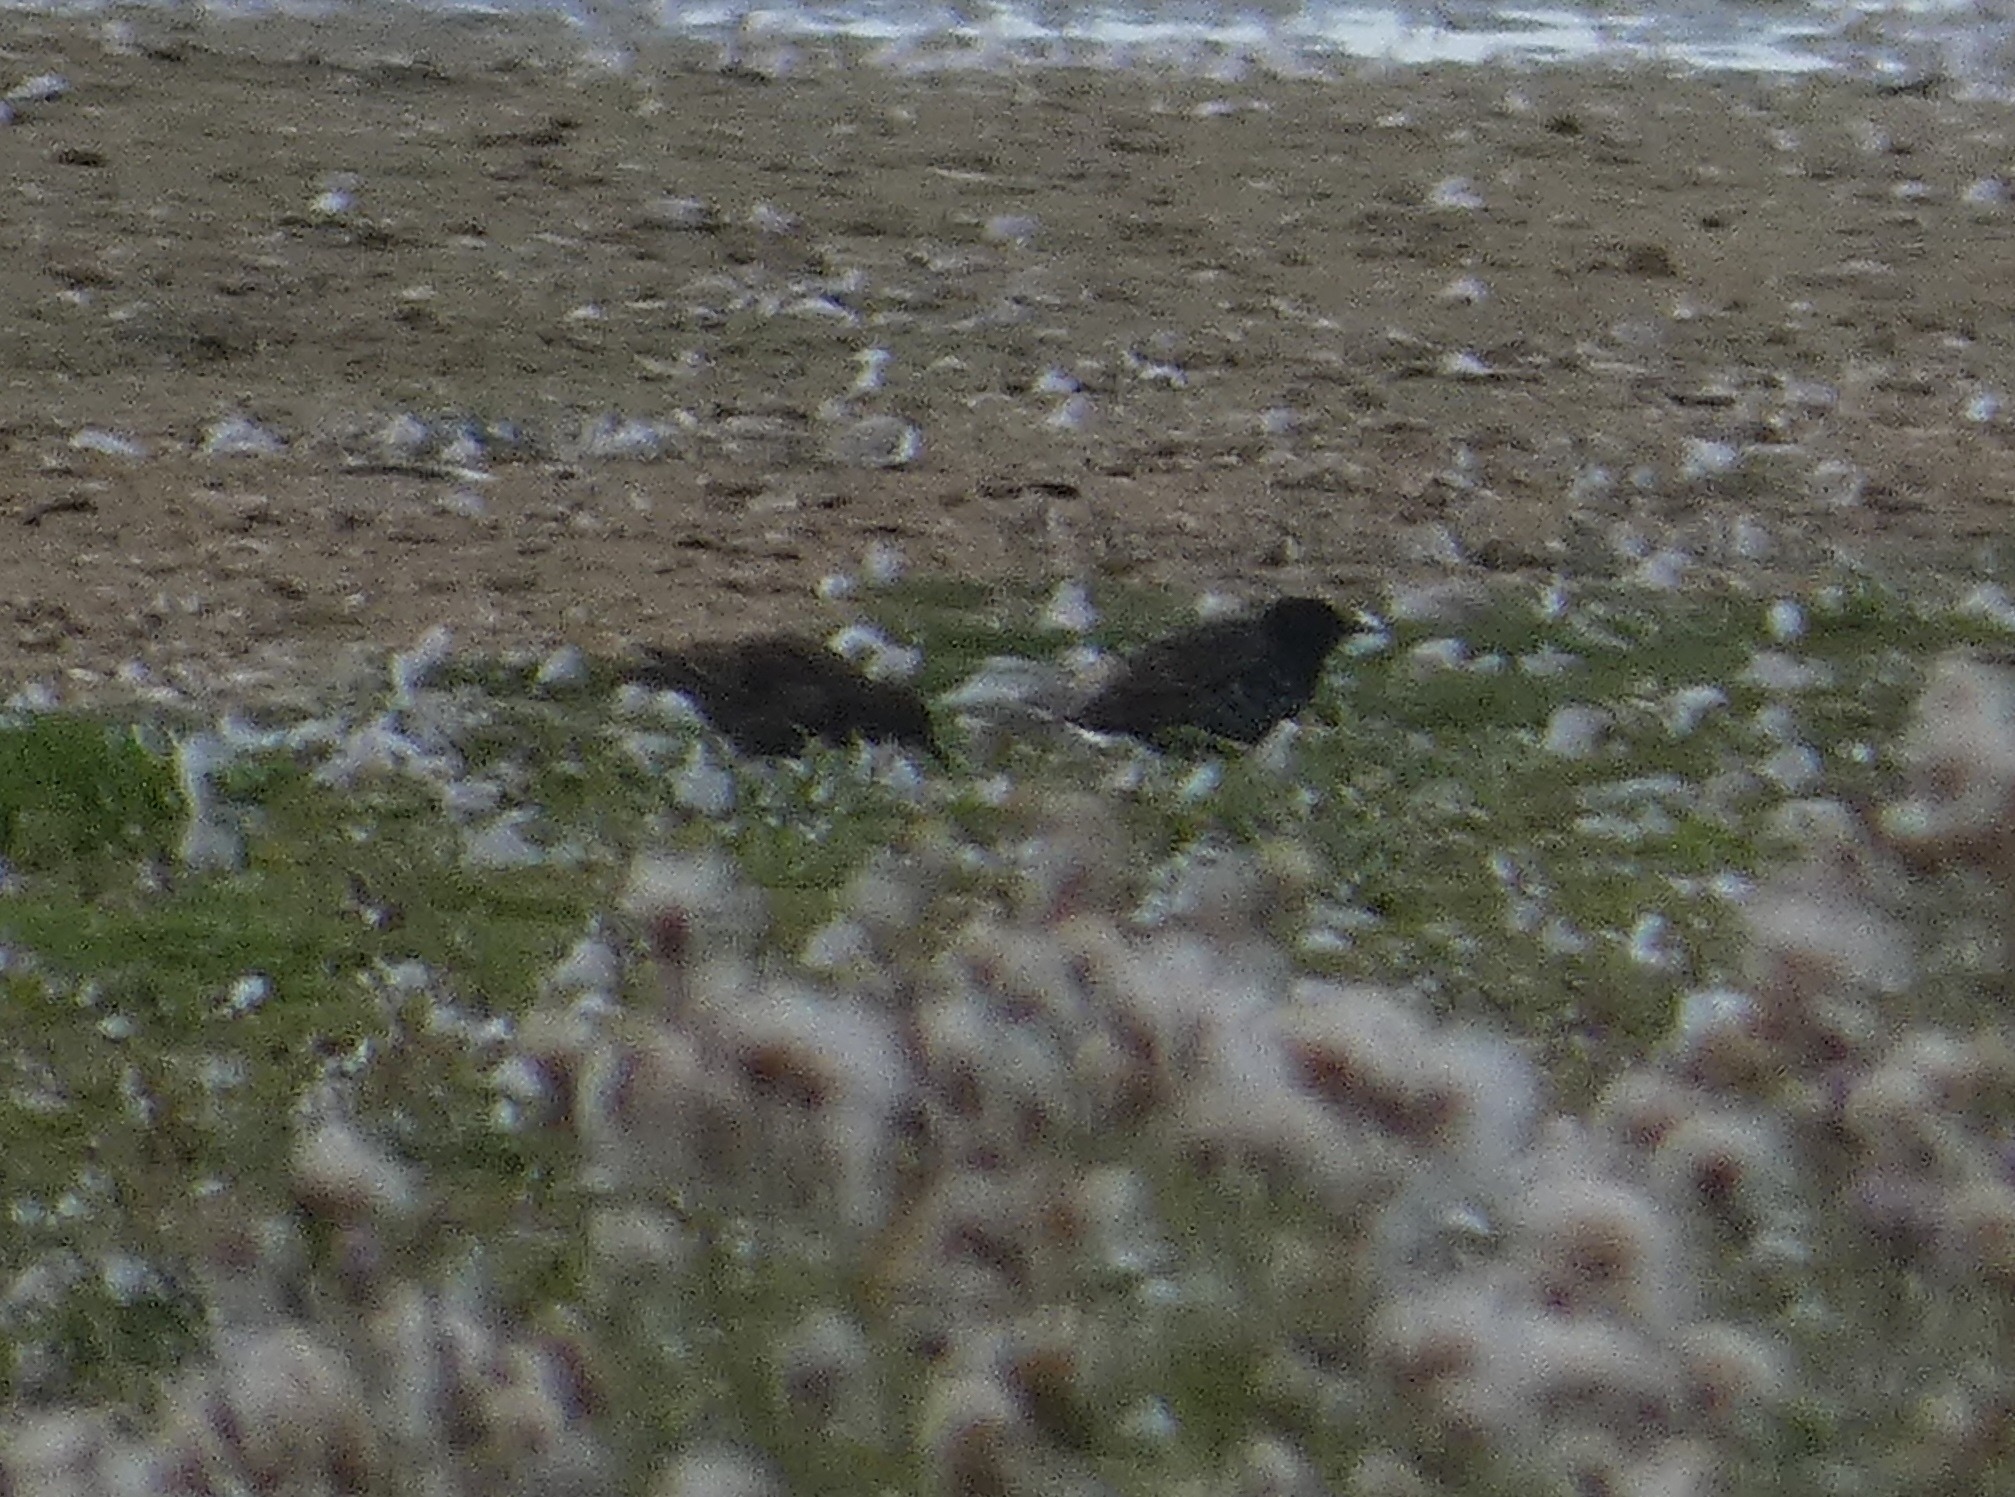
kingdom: Animalia
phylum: Chordata
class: Aves
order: Passeriformes
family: Sturnidae
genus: Sturnus
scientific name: Sturnus vulgaris
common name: Stær
